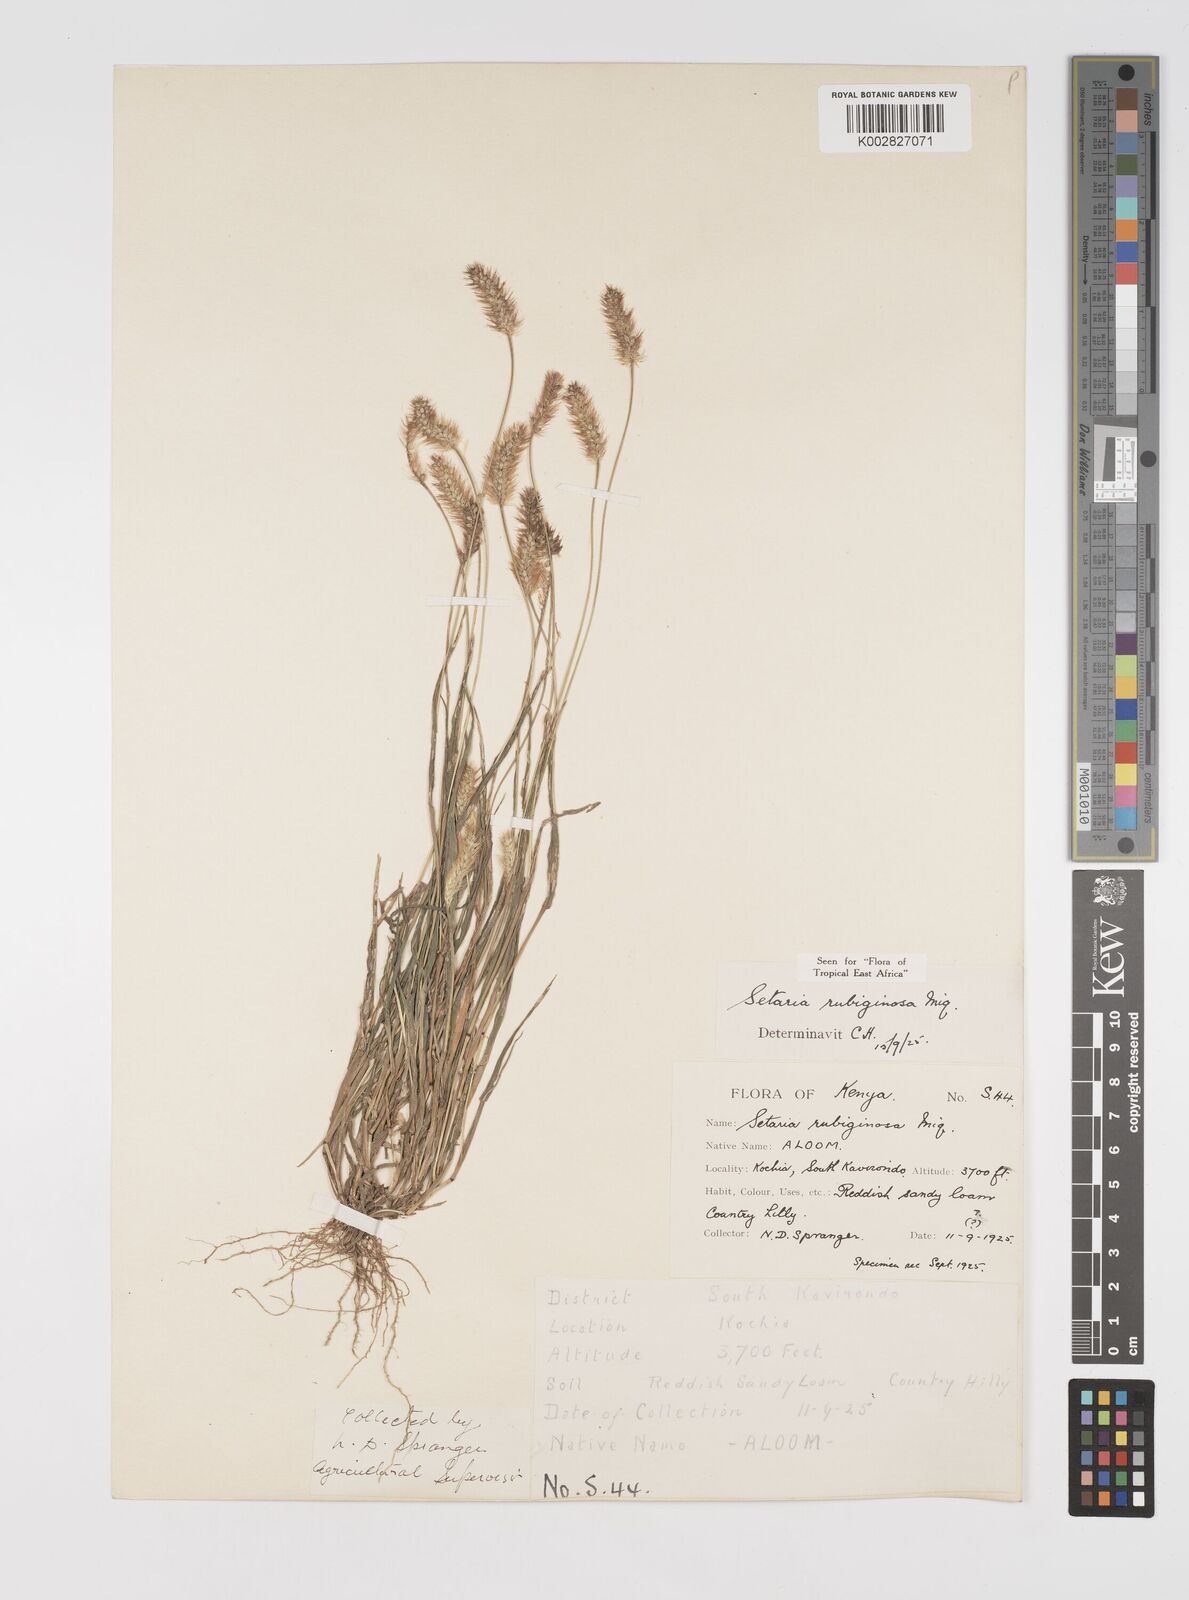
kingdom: Plantae
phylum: Tracheophyta
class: Liliopsida
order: Poales
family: Poaceae
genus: Setaria
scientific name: Setaria pumila
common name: Yellow bristle-grass
